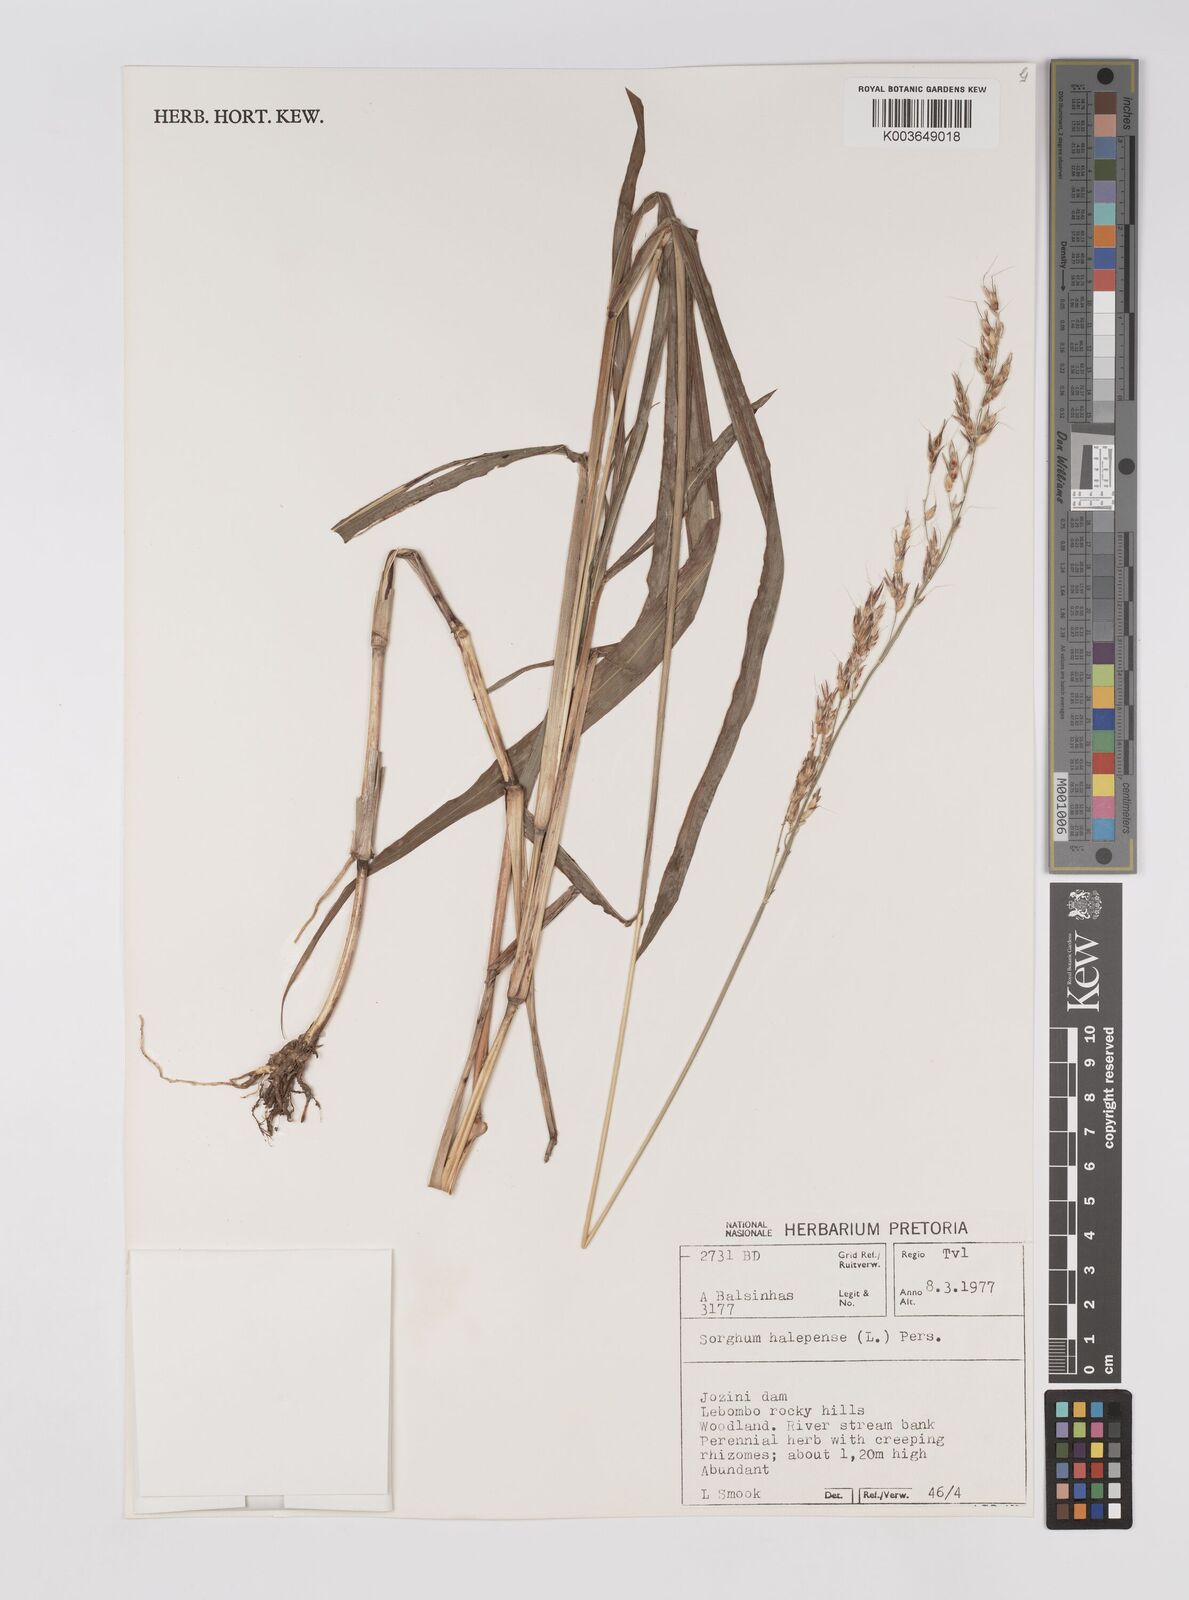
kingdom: Plantae
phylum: Tracheophyta
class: Liliopsida
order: Poales
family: Poaceae
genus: Sorghum
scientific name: Sorghum halepense
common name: Johnson-grass
